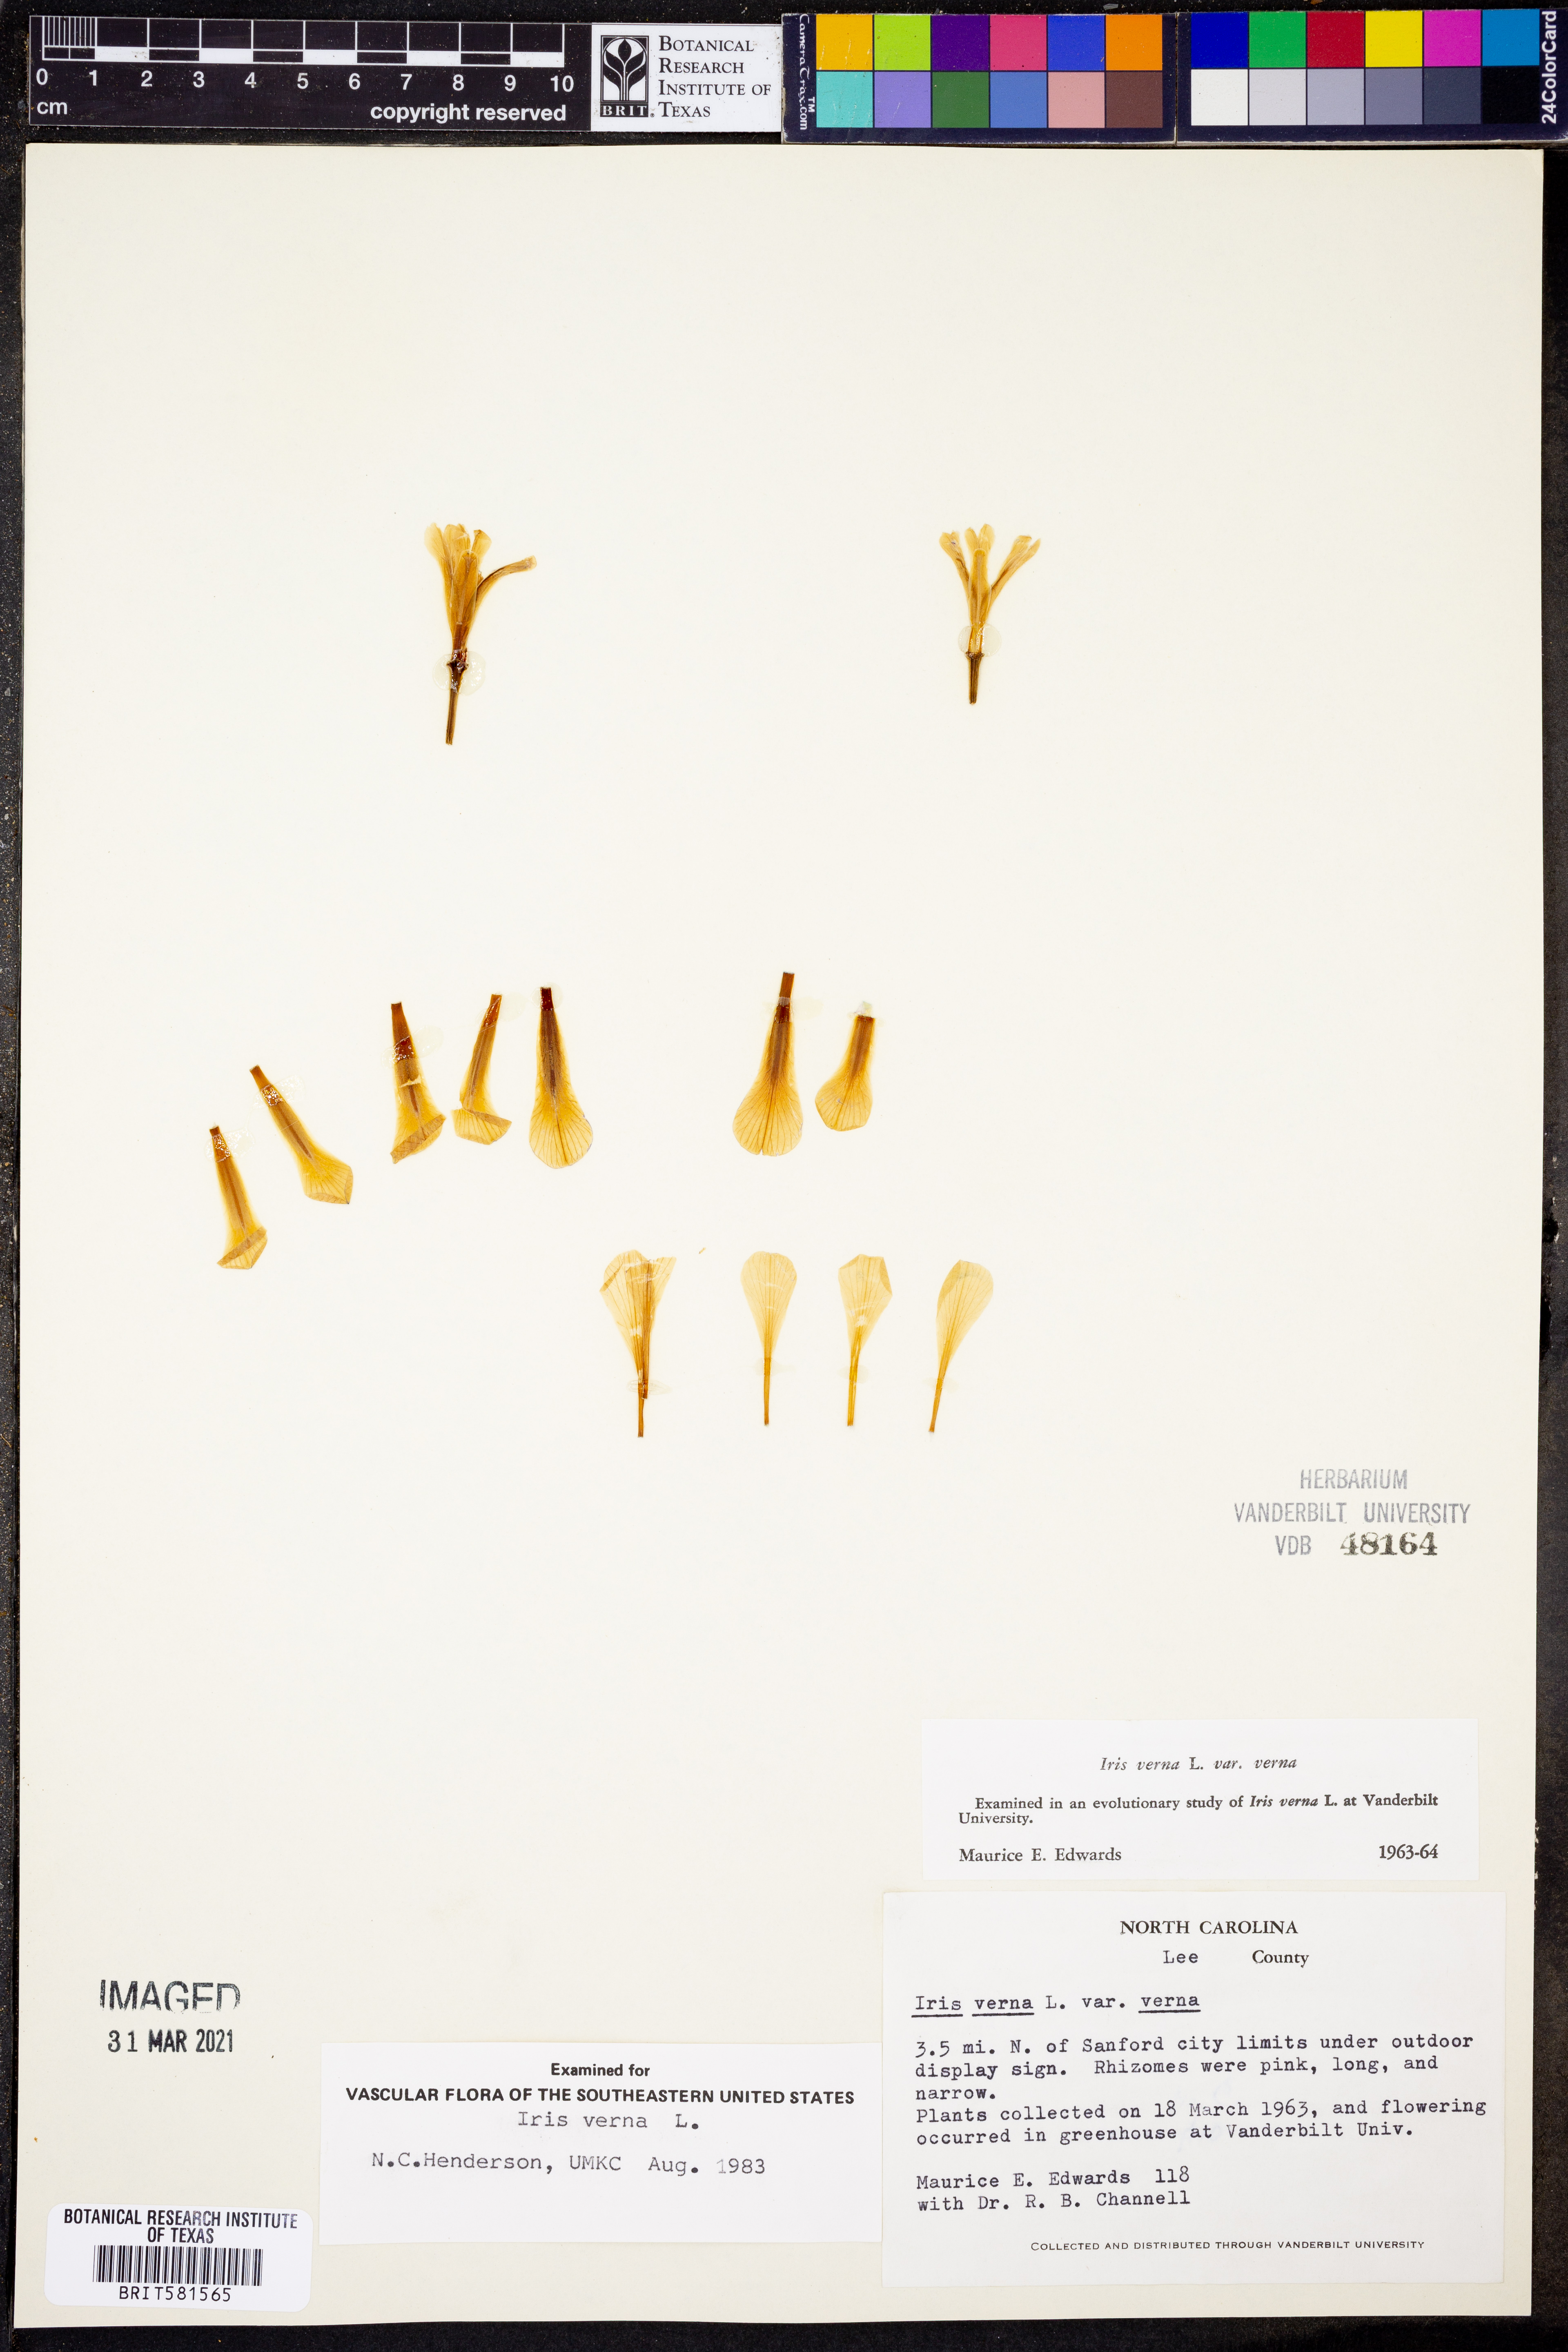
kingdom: Plantae
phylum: Tracheophyta
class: Liliopsida
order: Asparagales
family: Iridaceae
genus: Iris
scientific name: Iris verna
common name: Dwarf iris
